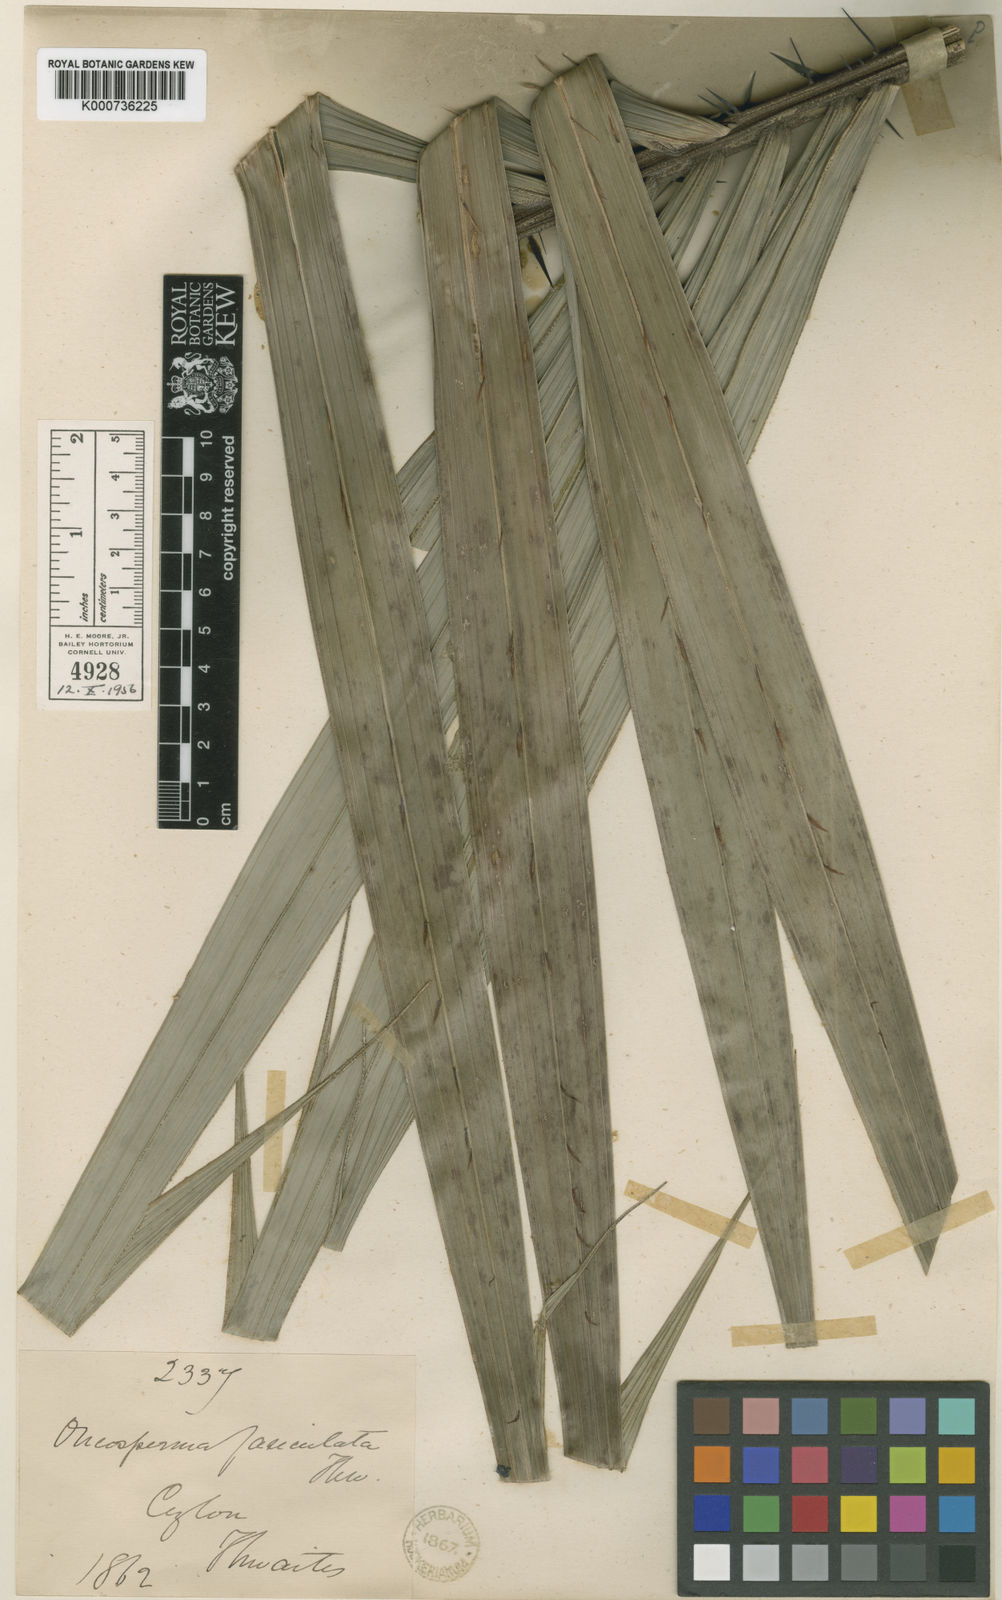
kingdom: Plantae
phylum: Tracheophyta
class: Liliopsida
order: Arecales
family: Arecaceae
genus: Oncosperma
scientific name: Oncosperma fasciculatum
